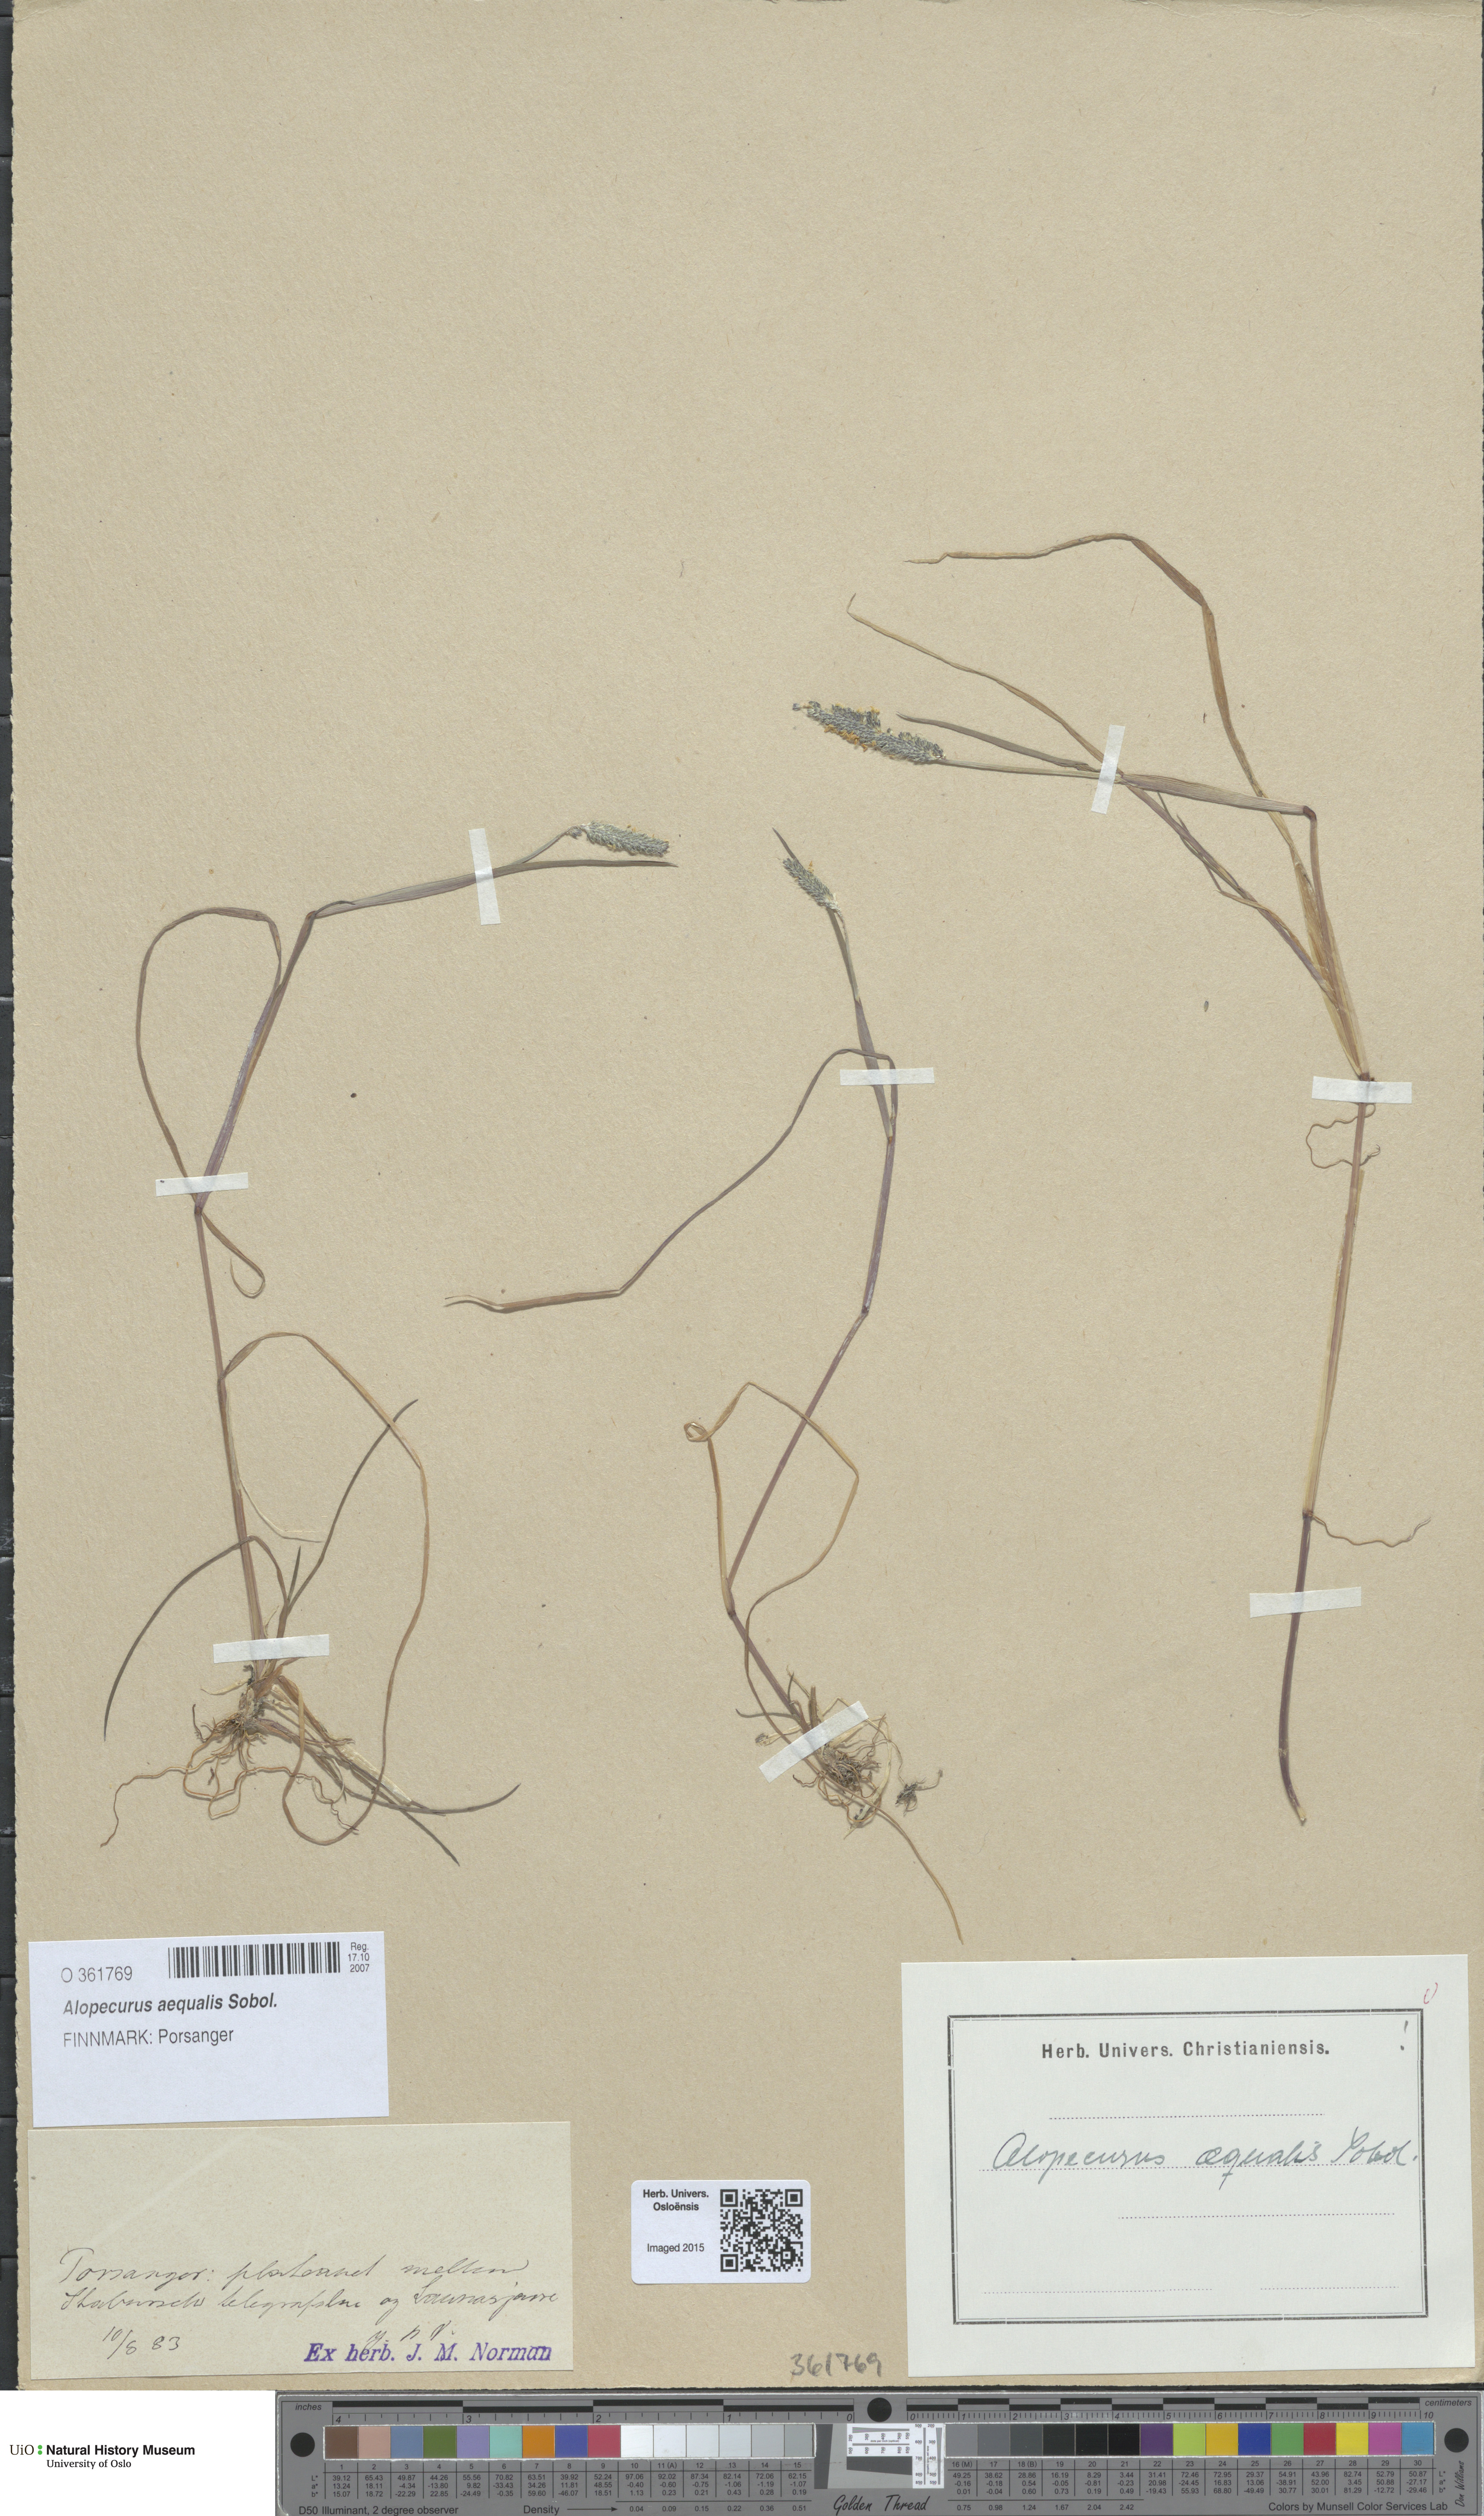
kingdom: Plantae
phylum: Tracheophyta
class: Liliopsida
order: Poales
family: Poaceae
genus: Alopecurus
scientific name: Alopecurus aequalis
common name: Orange foxtail
